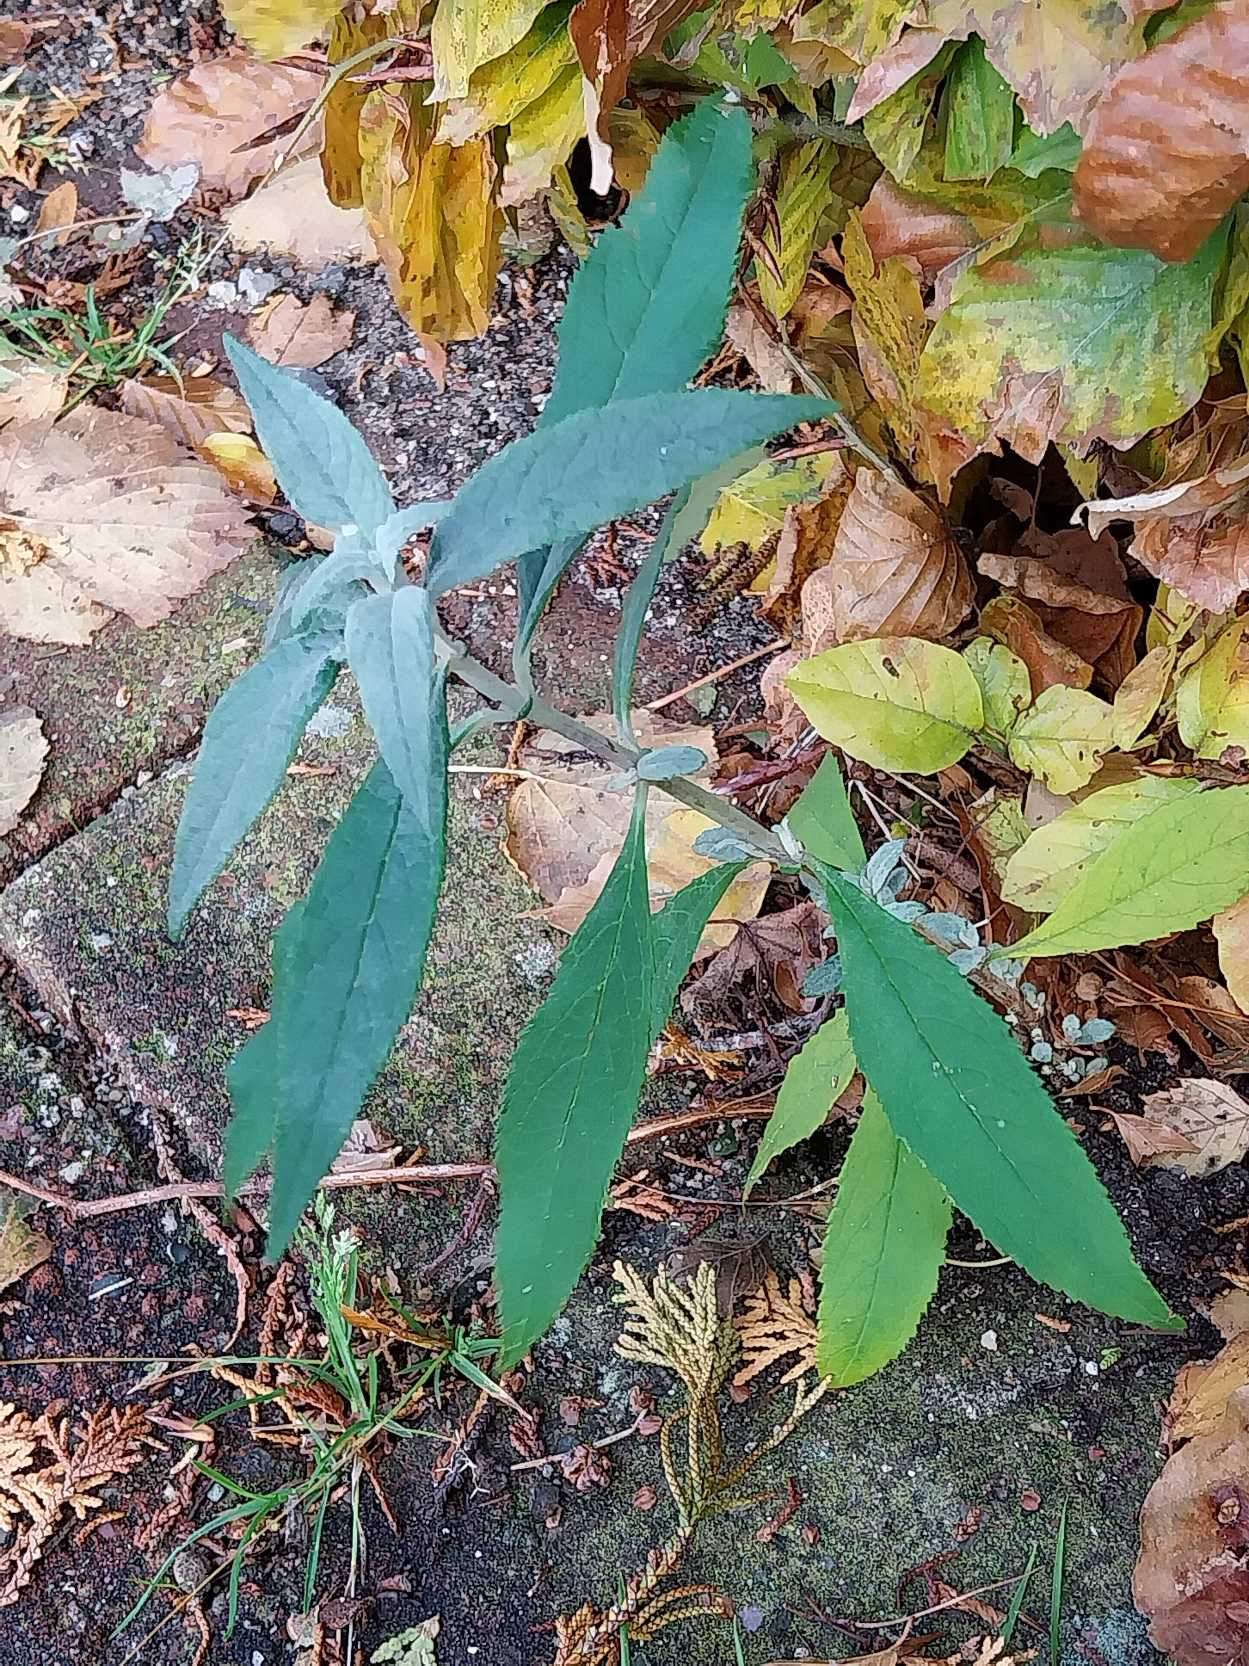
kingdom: Plantae
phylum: Tracheophyta
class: Magnoliopsida
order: Lamiales
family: Scrophulariaceae
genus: Buddleja
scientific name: Buddleja davidii
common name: Sommerfuglebusk
